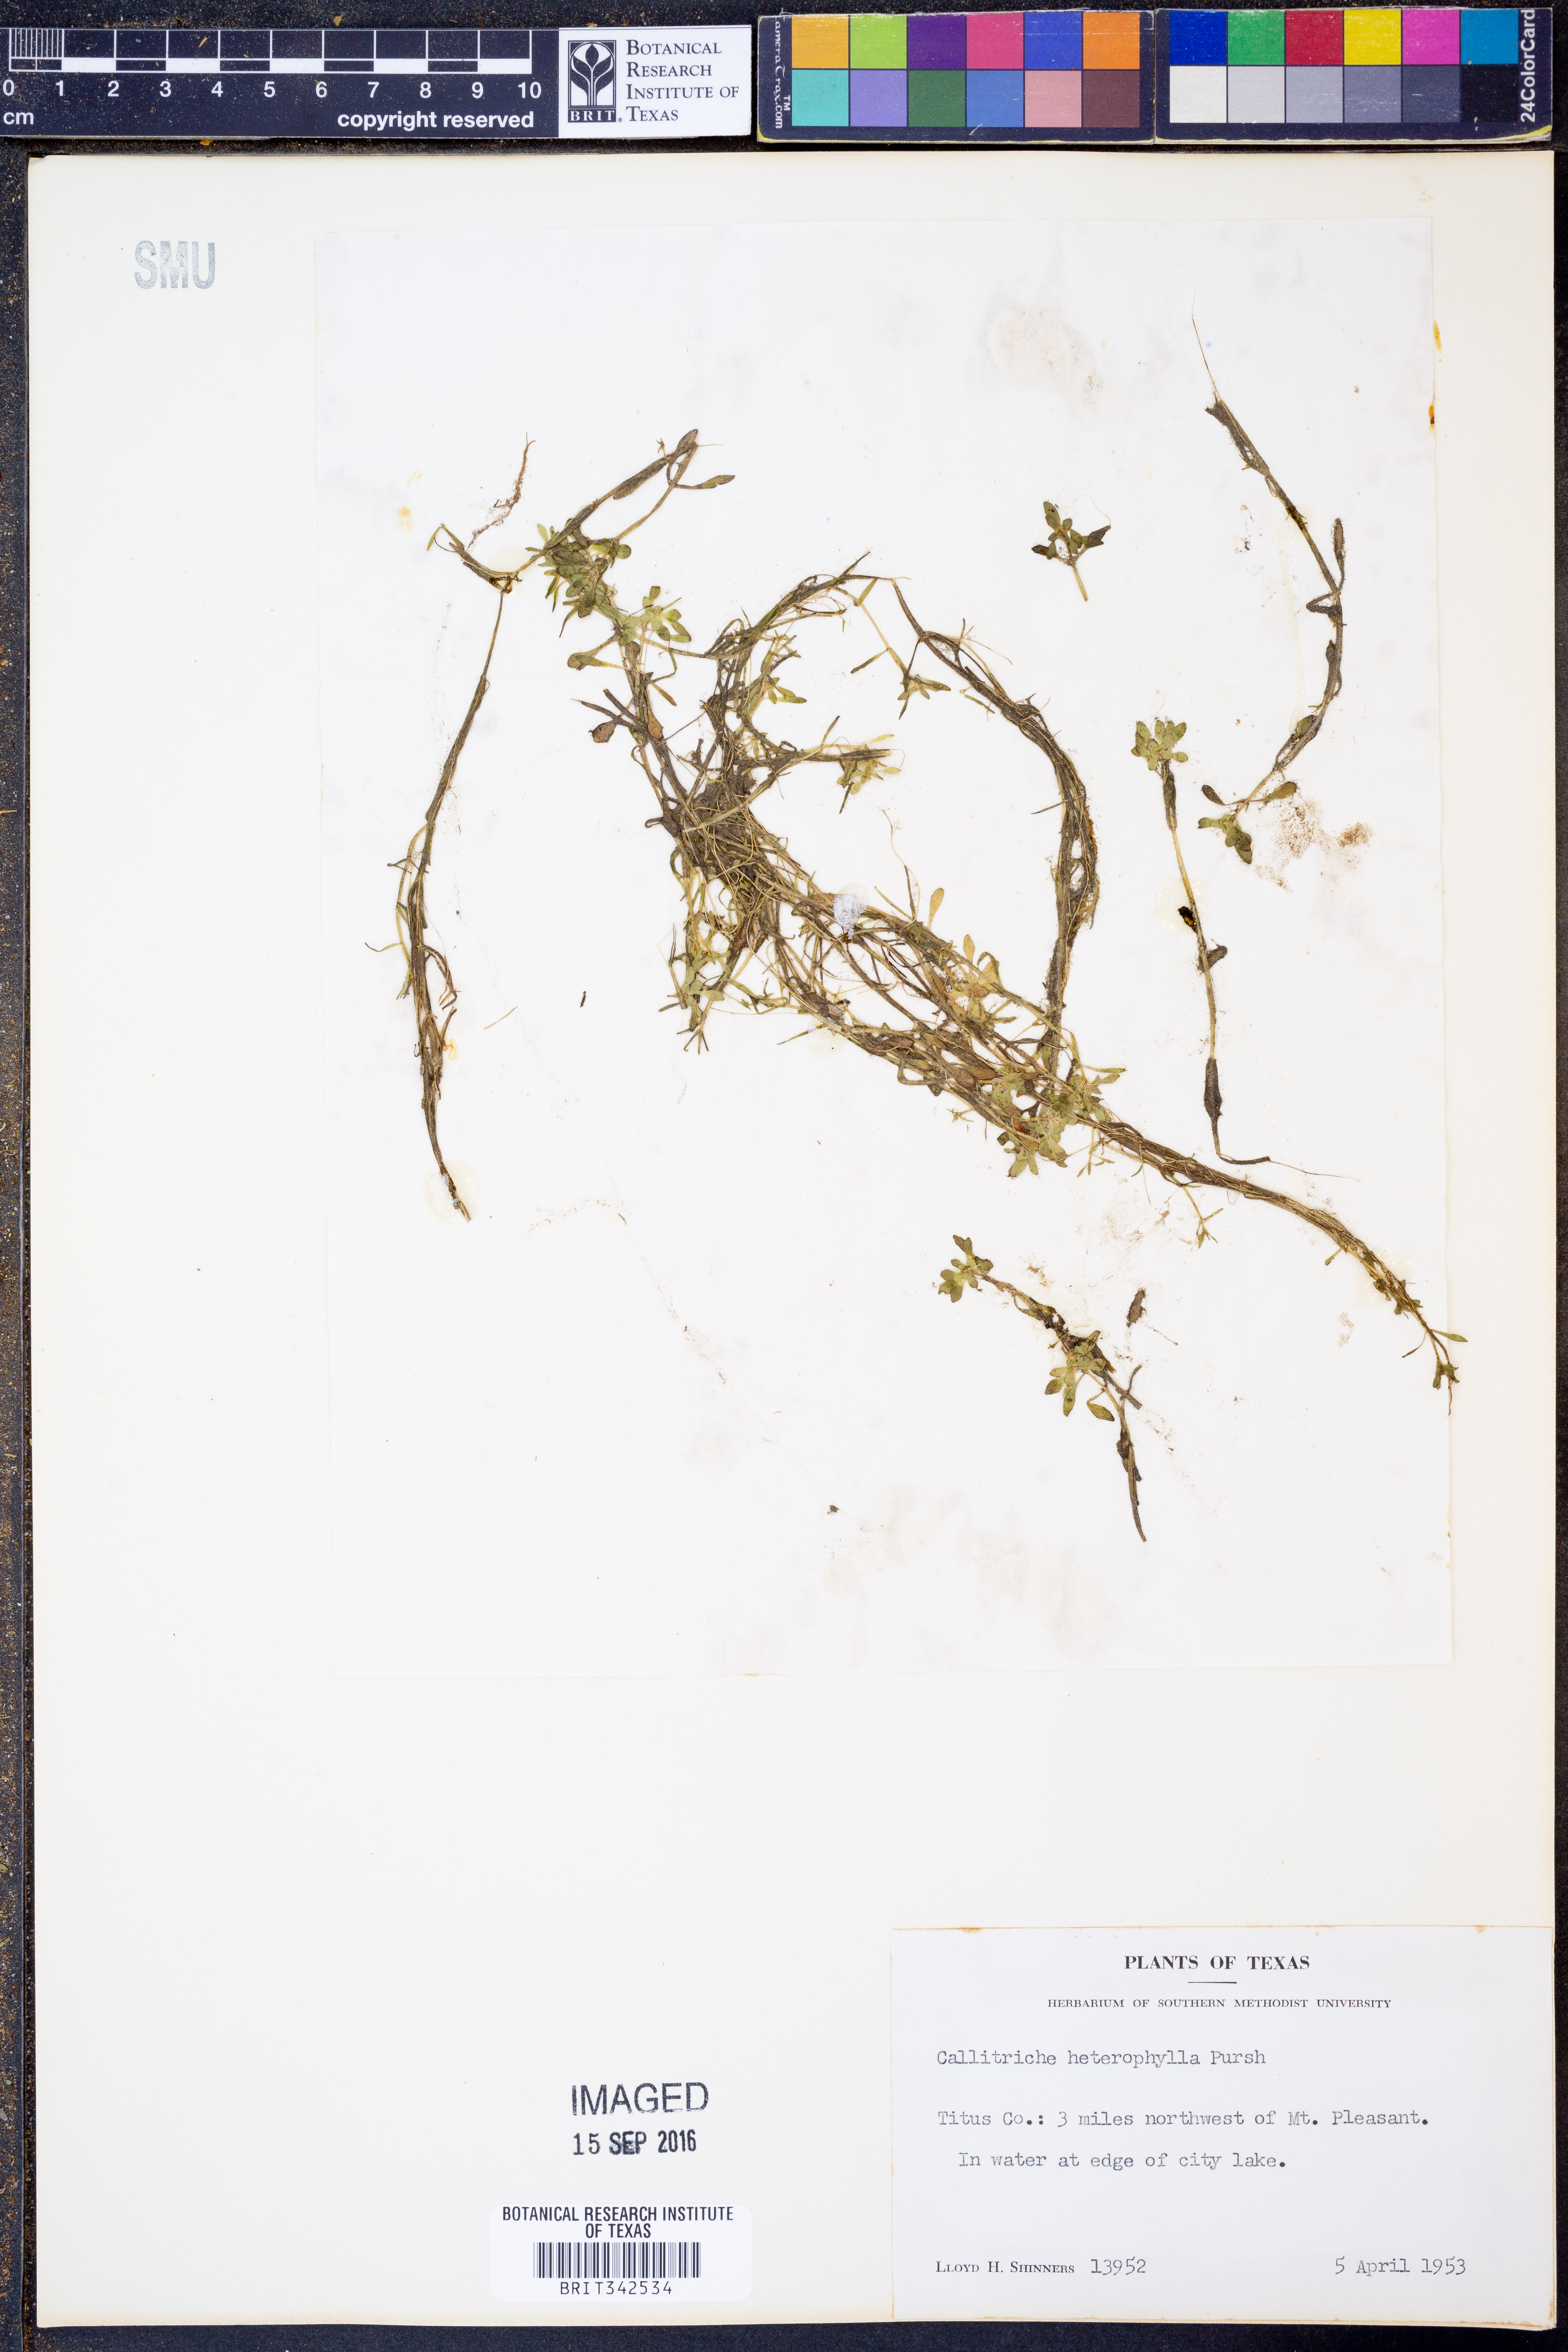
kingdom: Plantae
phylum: Tracheophyta
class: Magnoliopsida
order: Lamiales
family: Plantaginaceae
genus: Callitriche
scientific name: Callitriche heterophylla
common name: Two-headed water-starwort
